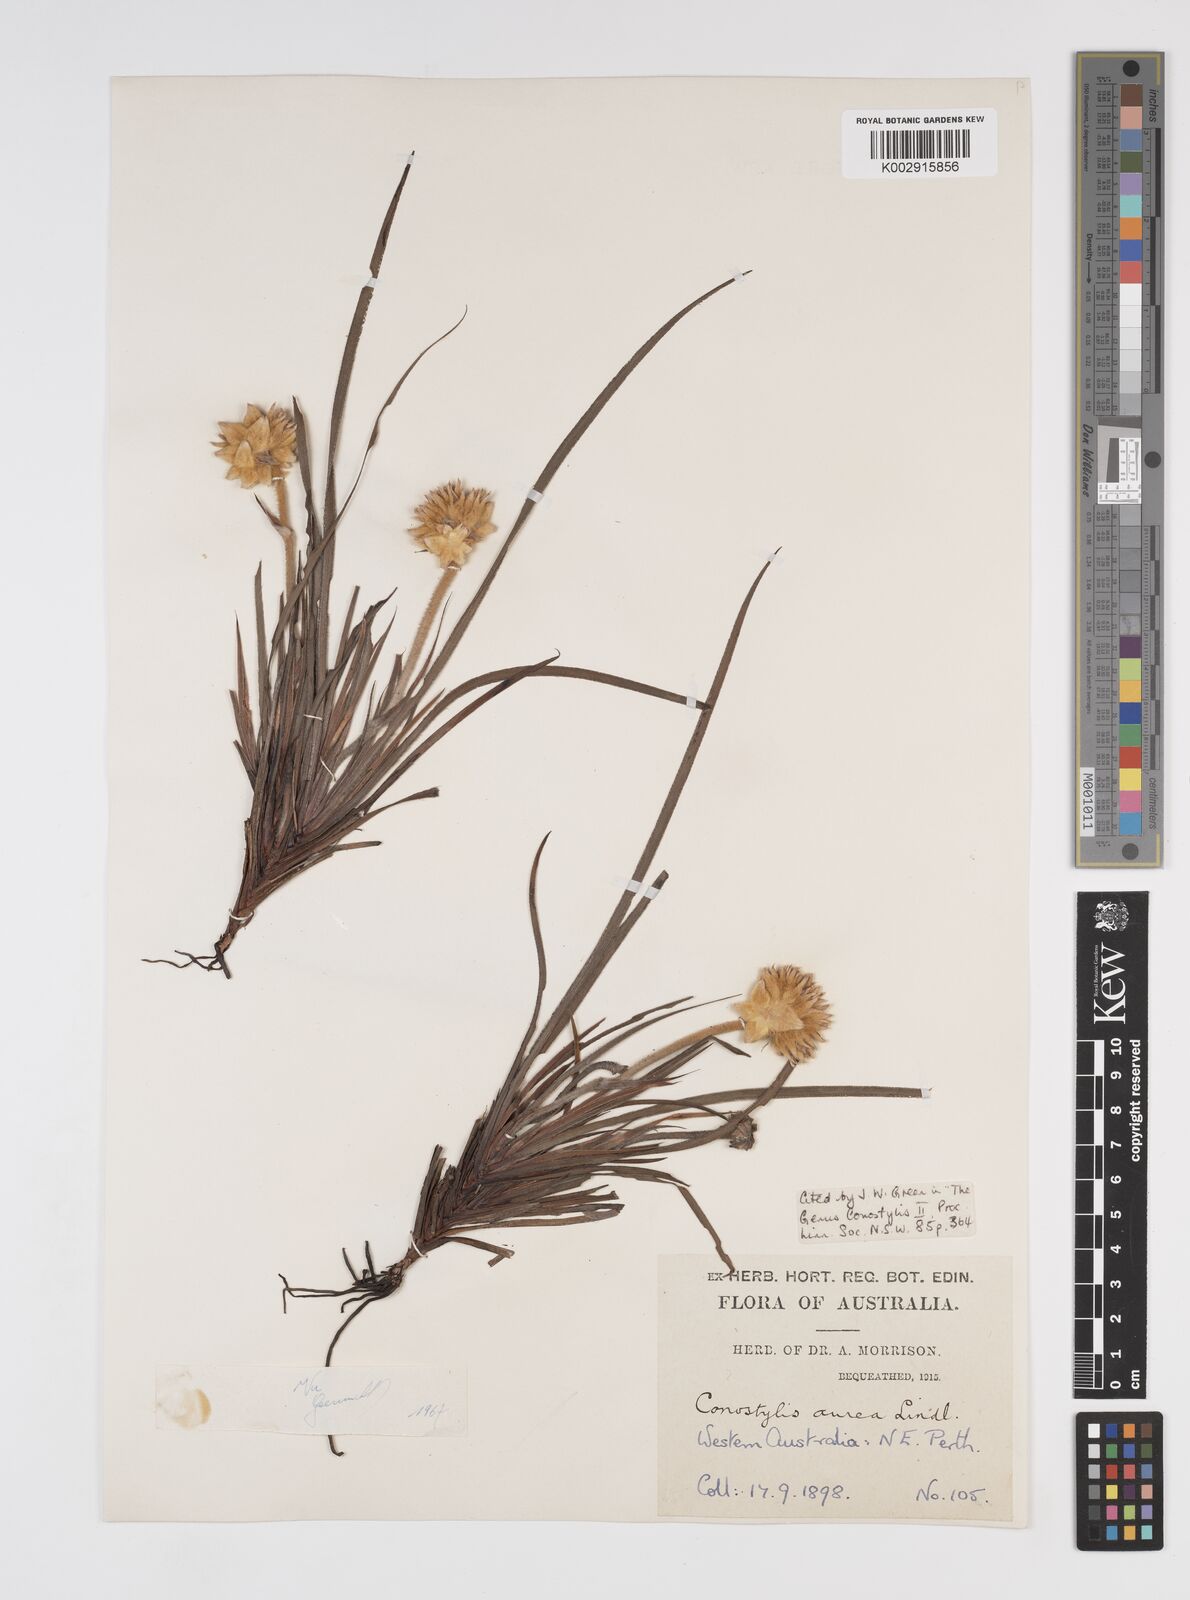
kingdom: Plantae
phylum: Tracheophyta
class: Liliopsida
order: Commelinales
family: Haemodoraceae
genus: Conostylis
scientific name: Conostylis aurea
